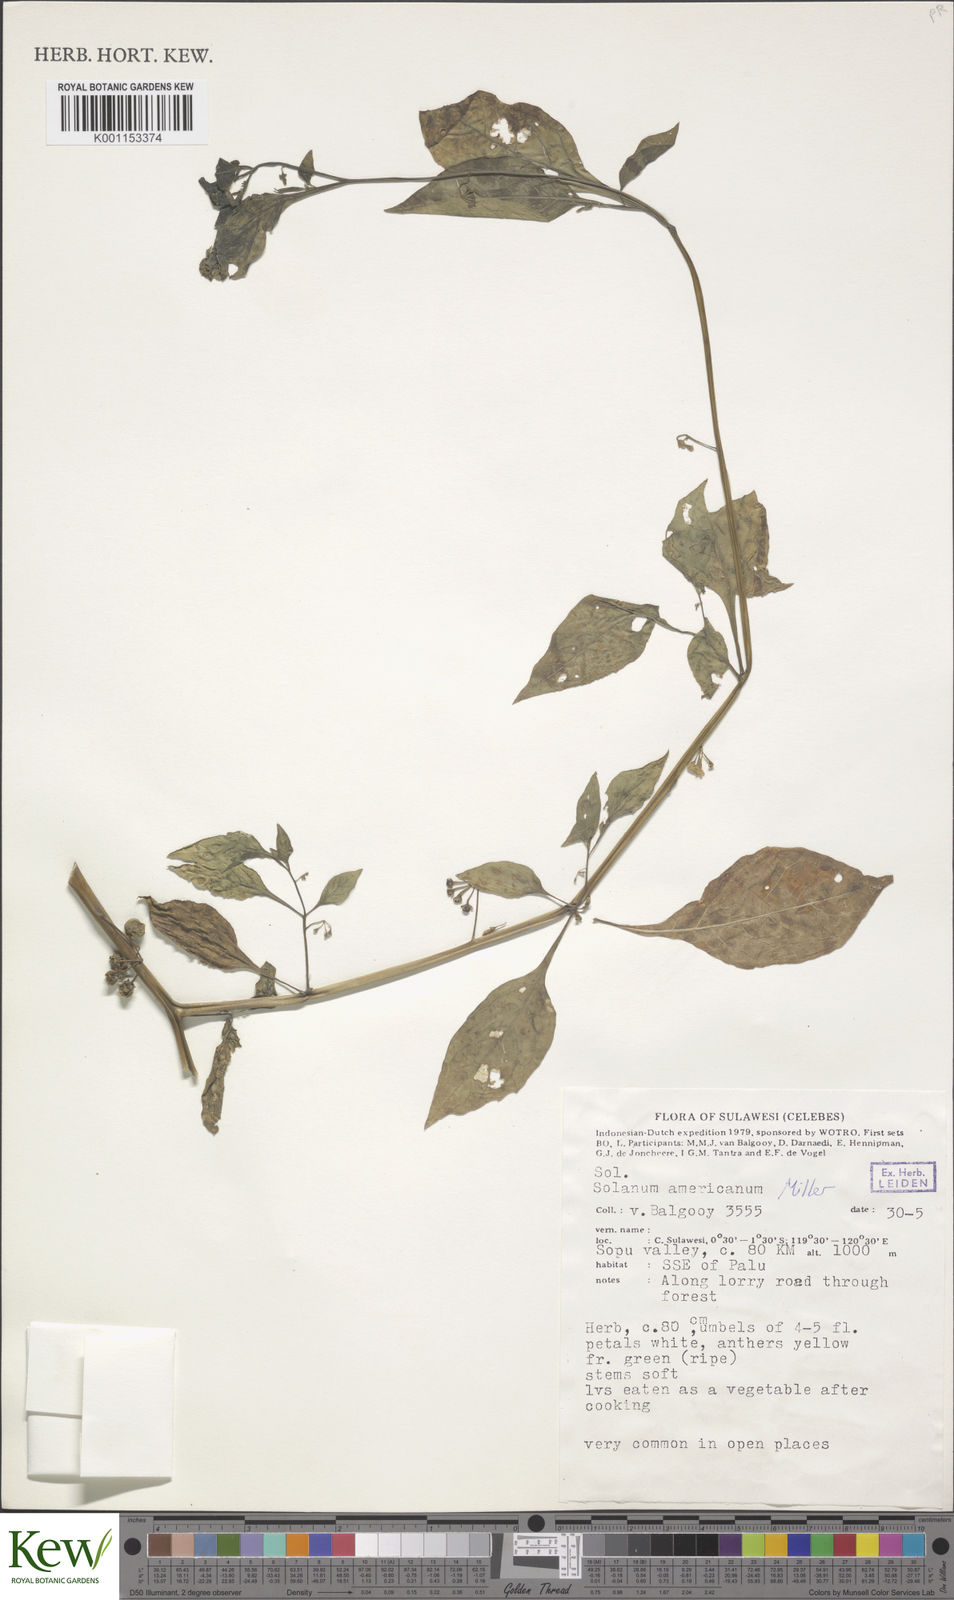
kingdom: Plantae
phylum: Tracheophyta
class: Magnoliopsida
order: Solanales
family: Solanaceae
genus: Solanum
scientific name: Solanum americanum
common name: American black nightshade
